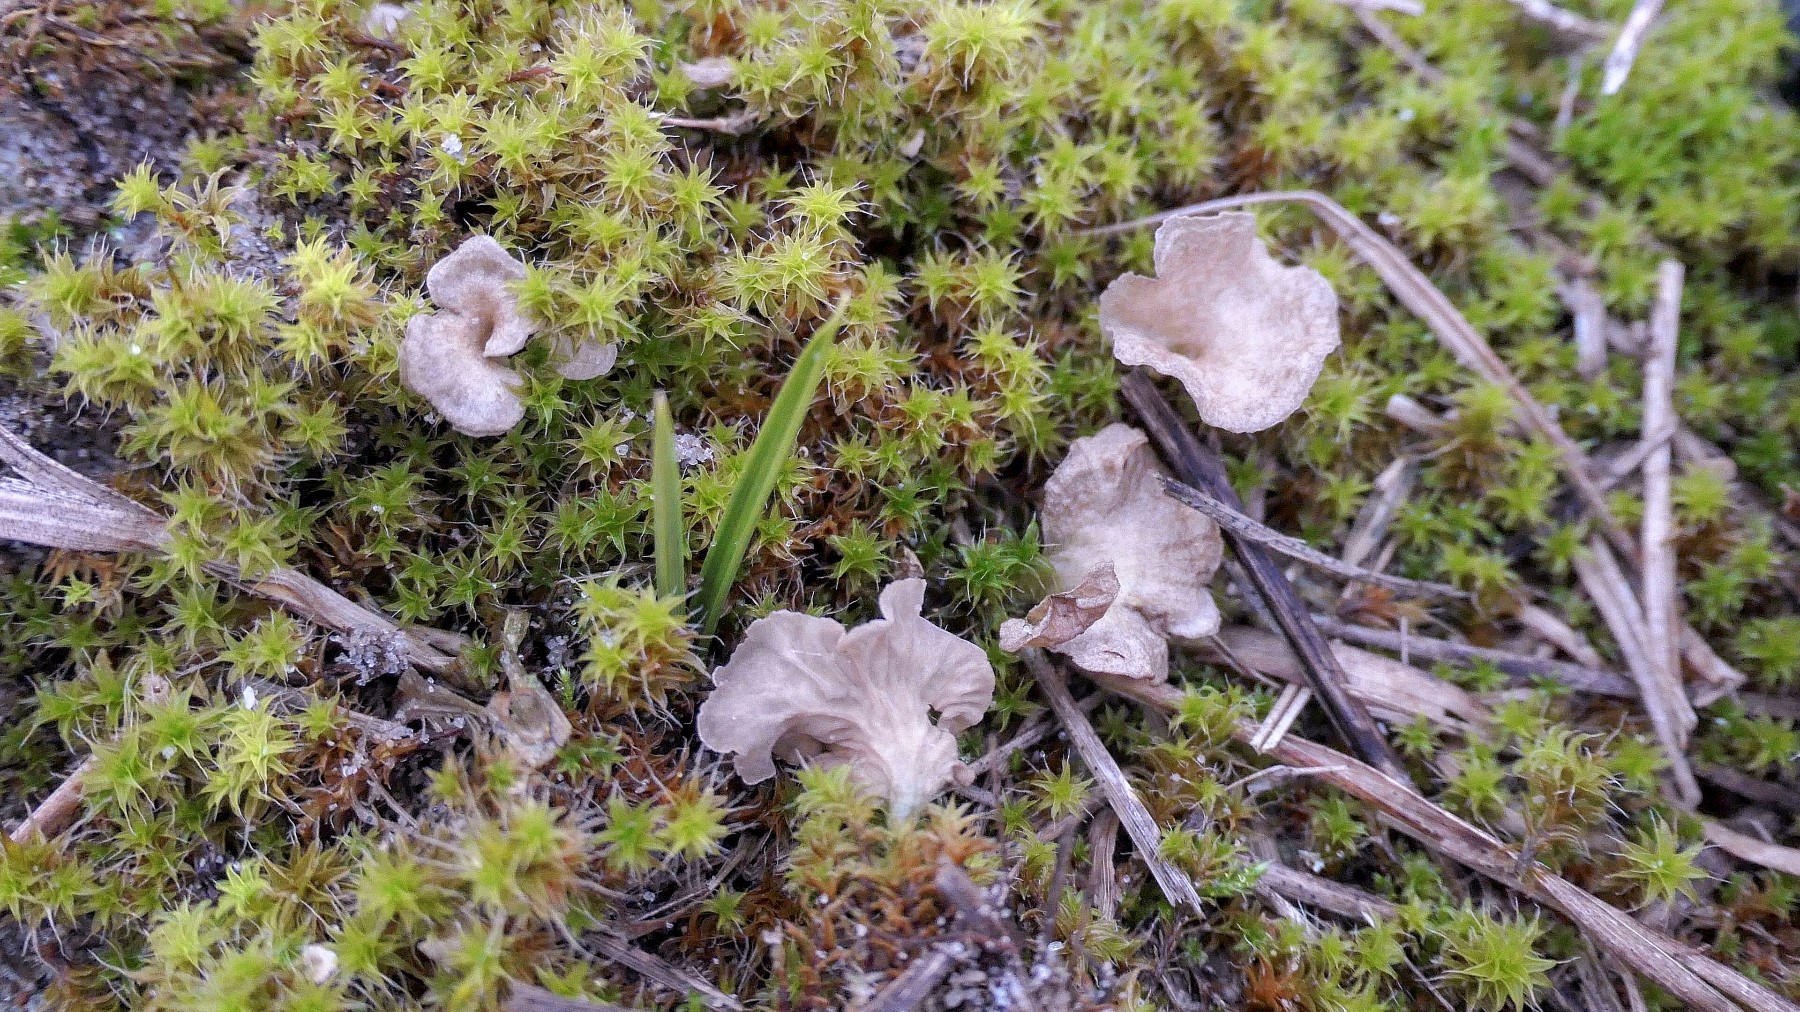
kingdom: Fungi
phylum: Basidiomycota
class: Agaricomycetes
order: Agaricales
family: Hygrophoraceae
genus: Arrhenia
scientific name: Arrhenia spathulata
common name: skæv fontænehat
